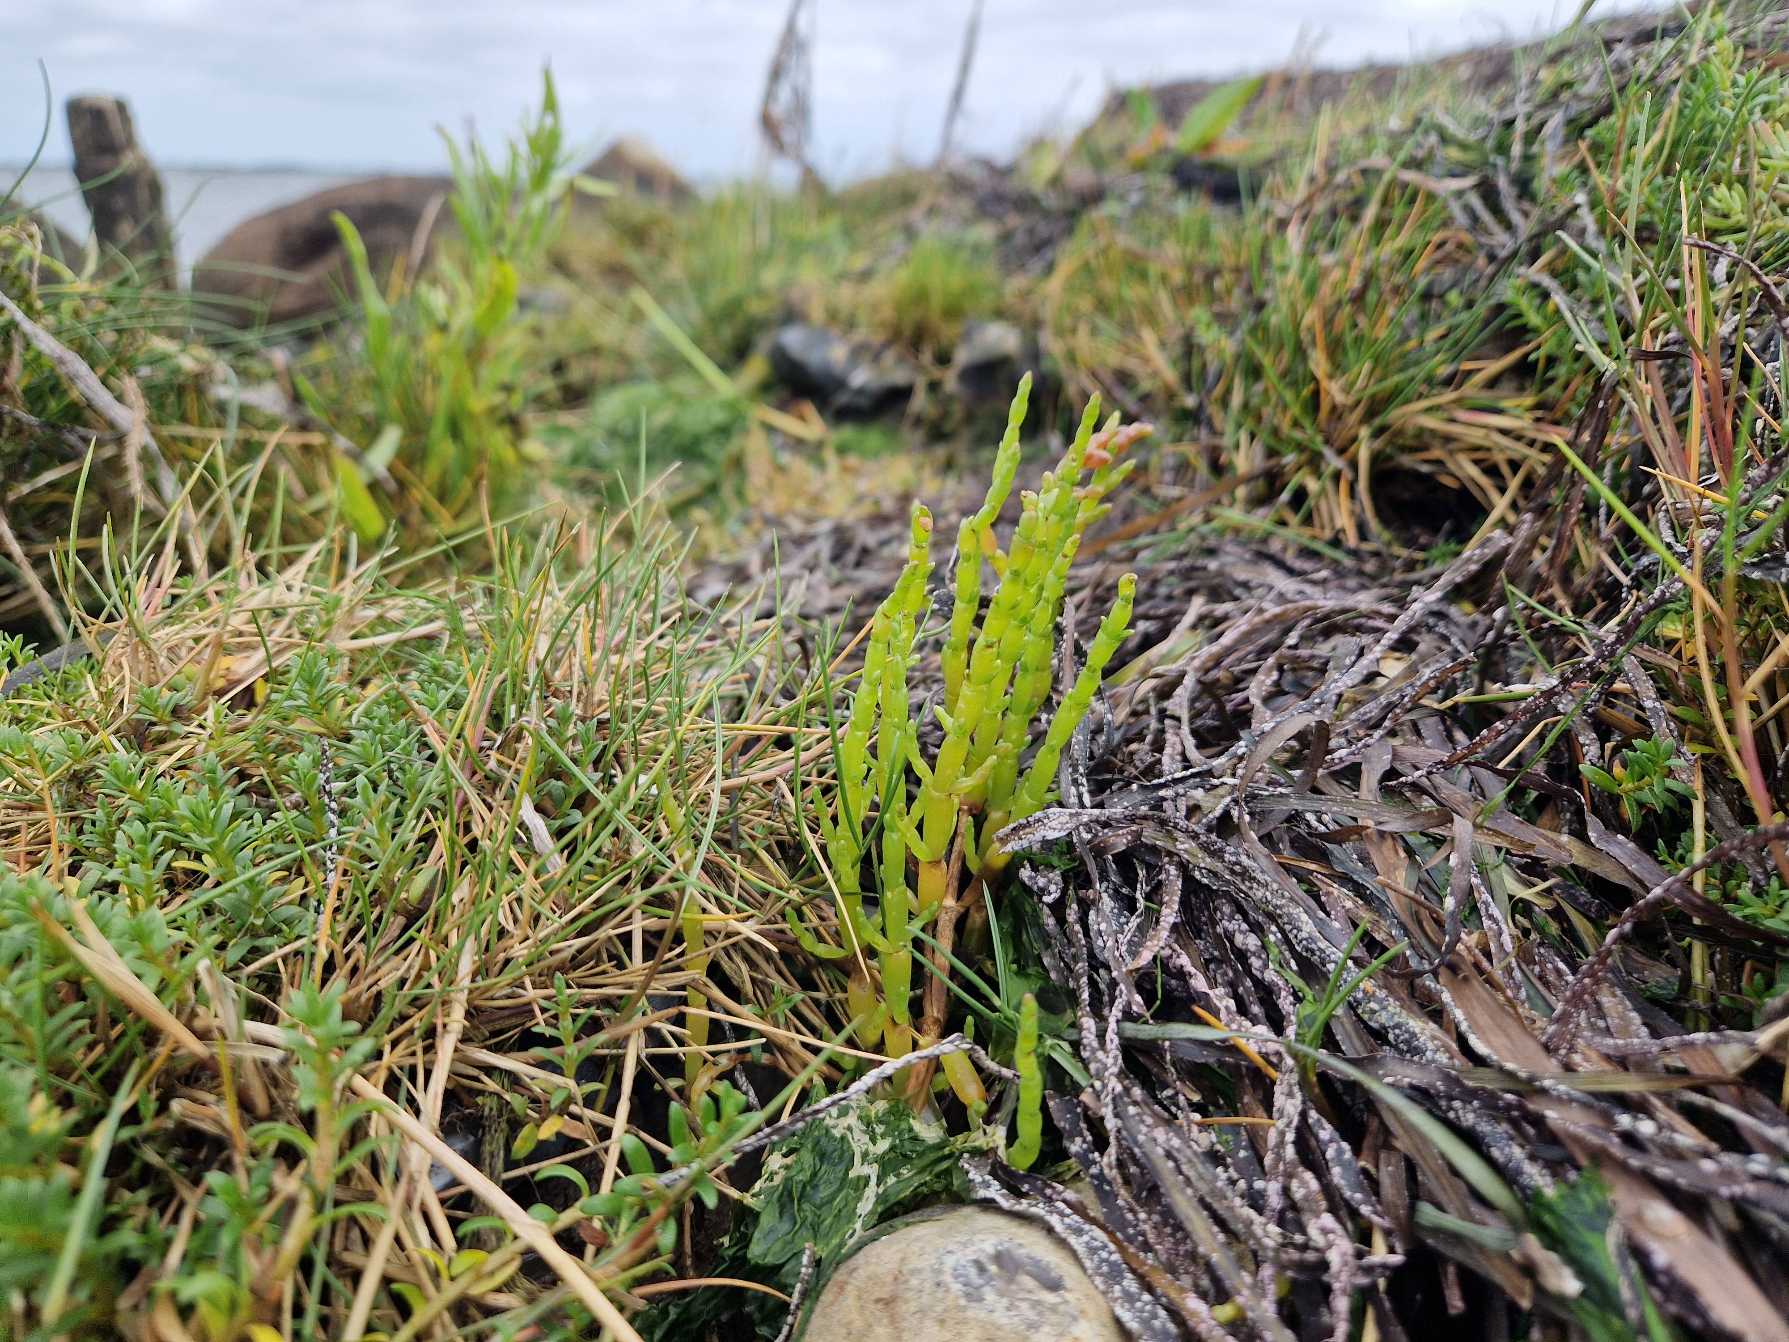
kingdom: Plantae
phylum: Tracheophyta
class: Magnoliopsida
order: Caryophyllales
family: Amaranthaceae
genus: Salicornia
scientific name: Salicornia europaea
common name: Almindelig salturt
